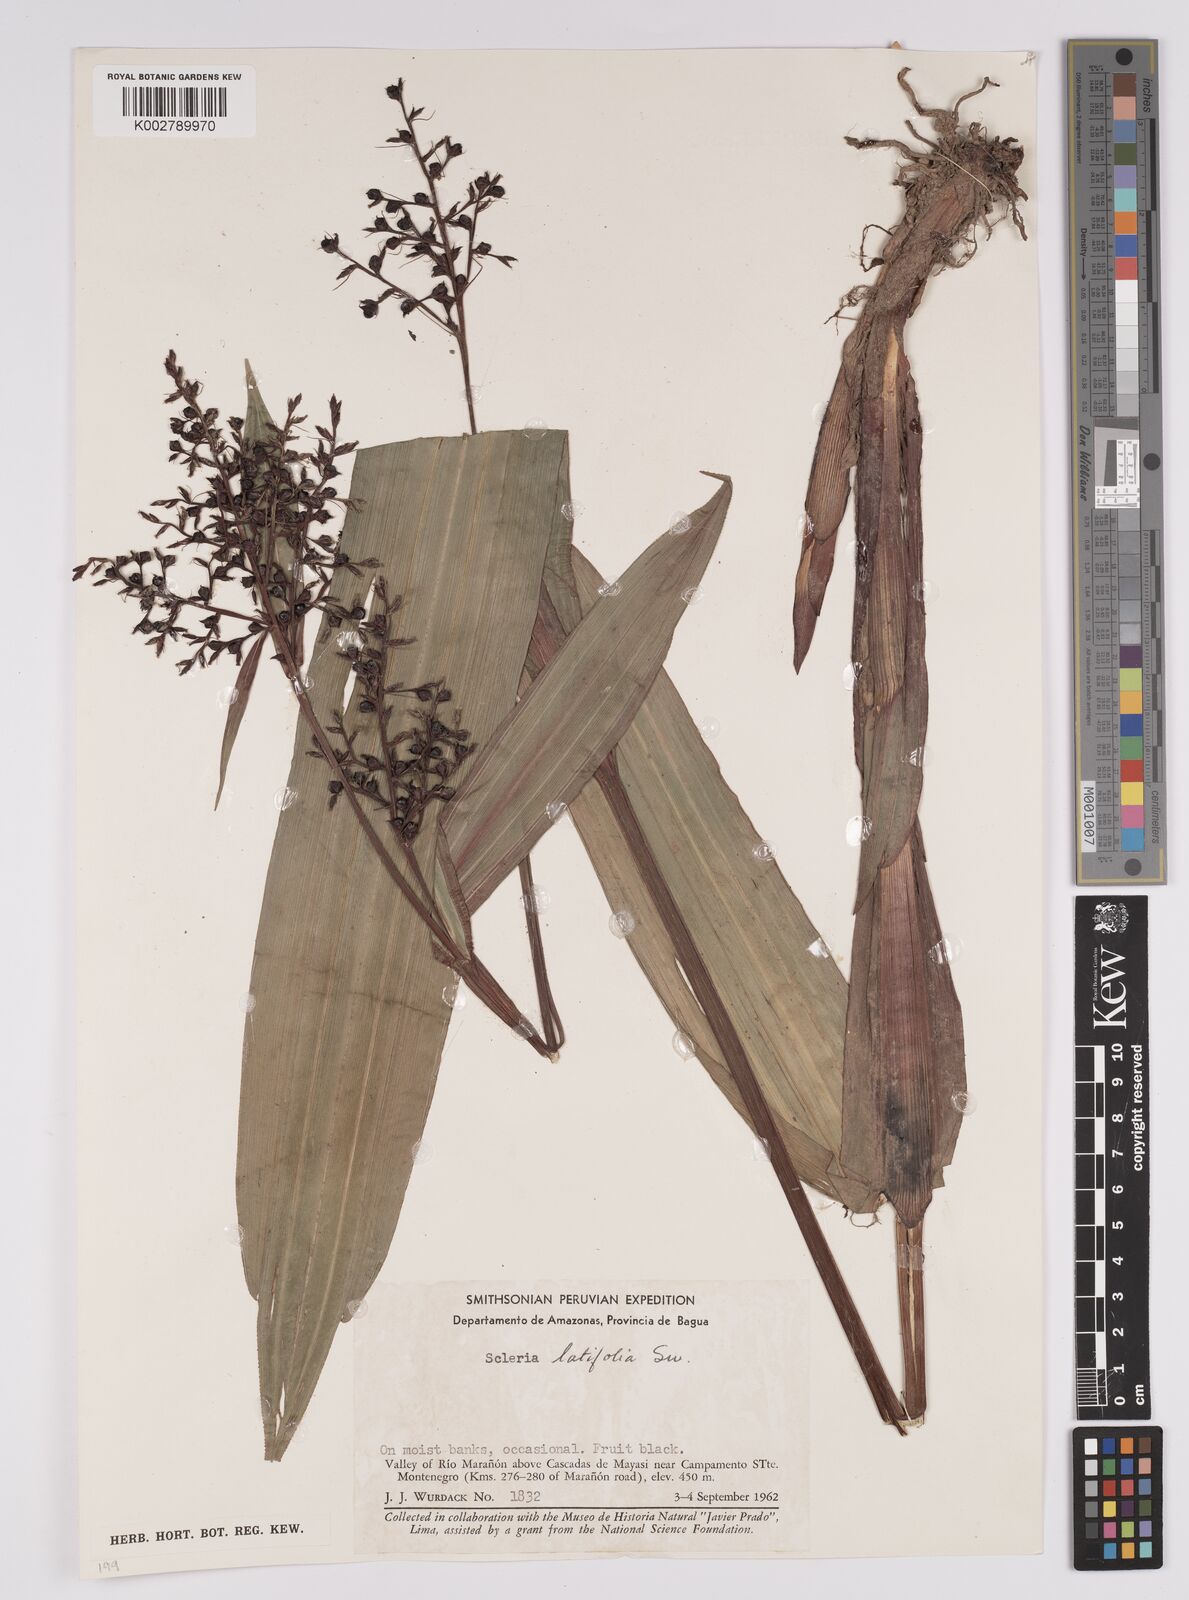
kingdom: Plantae
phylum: Tracheophyta
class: Liliopsida
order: Poales
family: Cyperaceae
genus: Scleria
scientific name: Scleria latifolia
